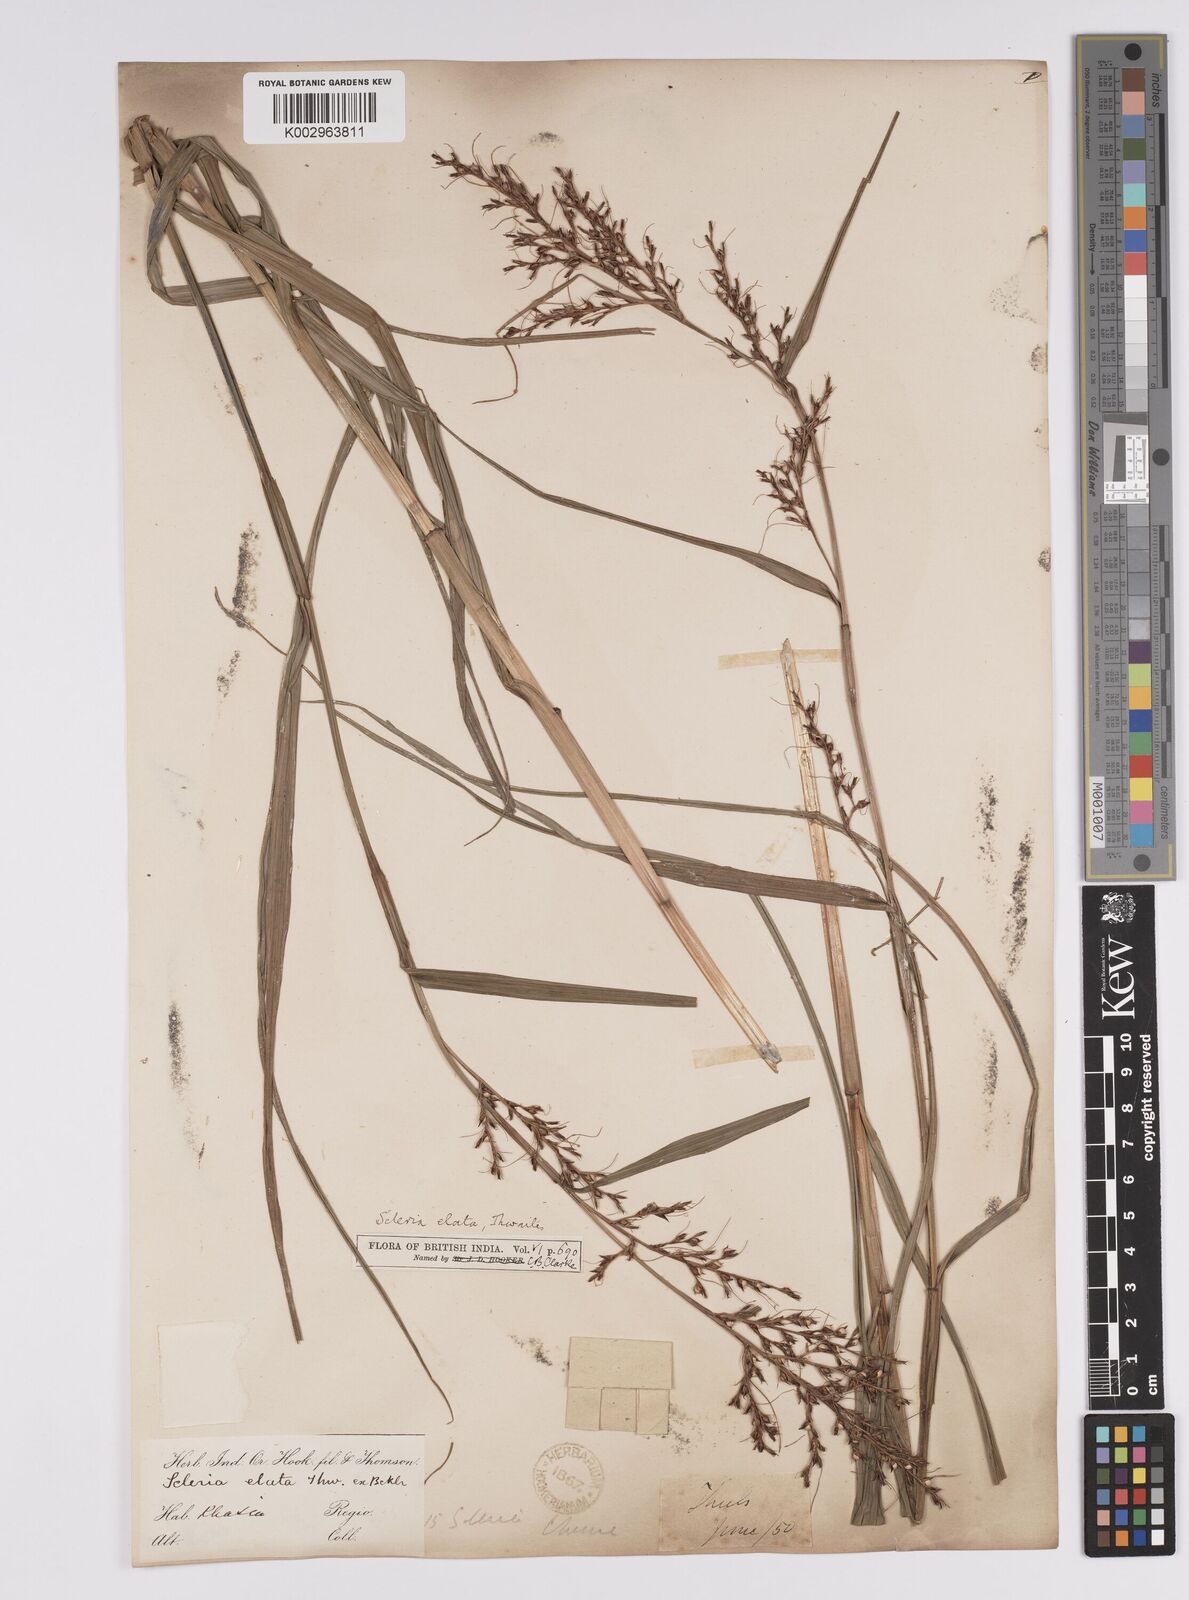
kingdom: Plantae
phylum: Tracheophyta
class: Liliopsida
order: Poales
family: Cyperaceae
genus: Scleria
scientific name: Scleria terrestris
